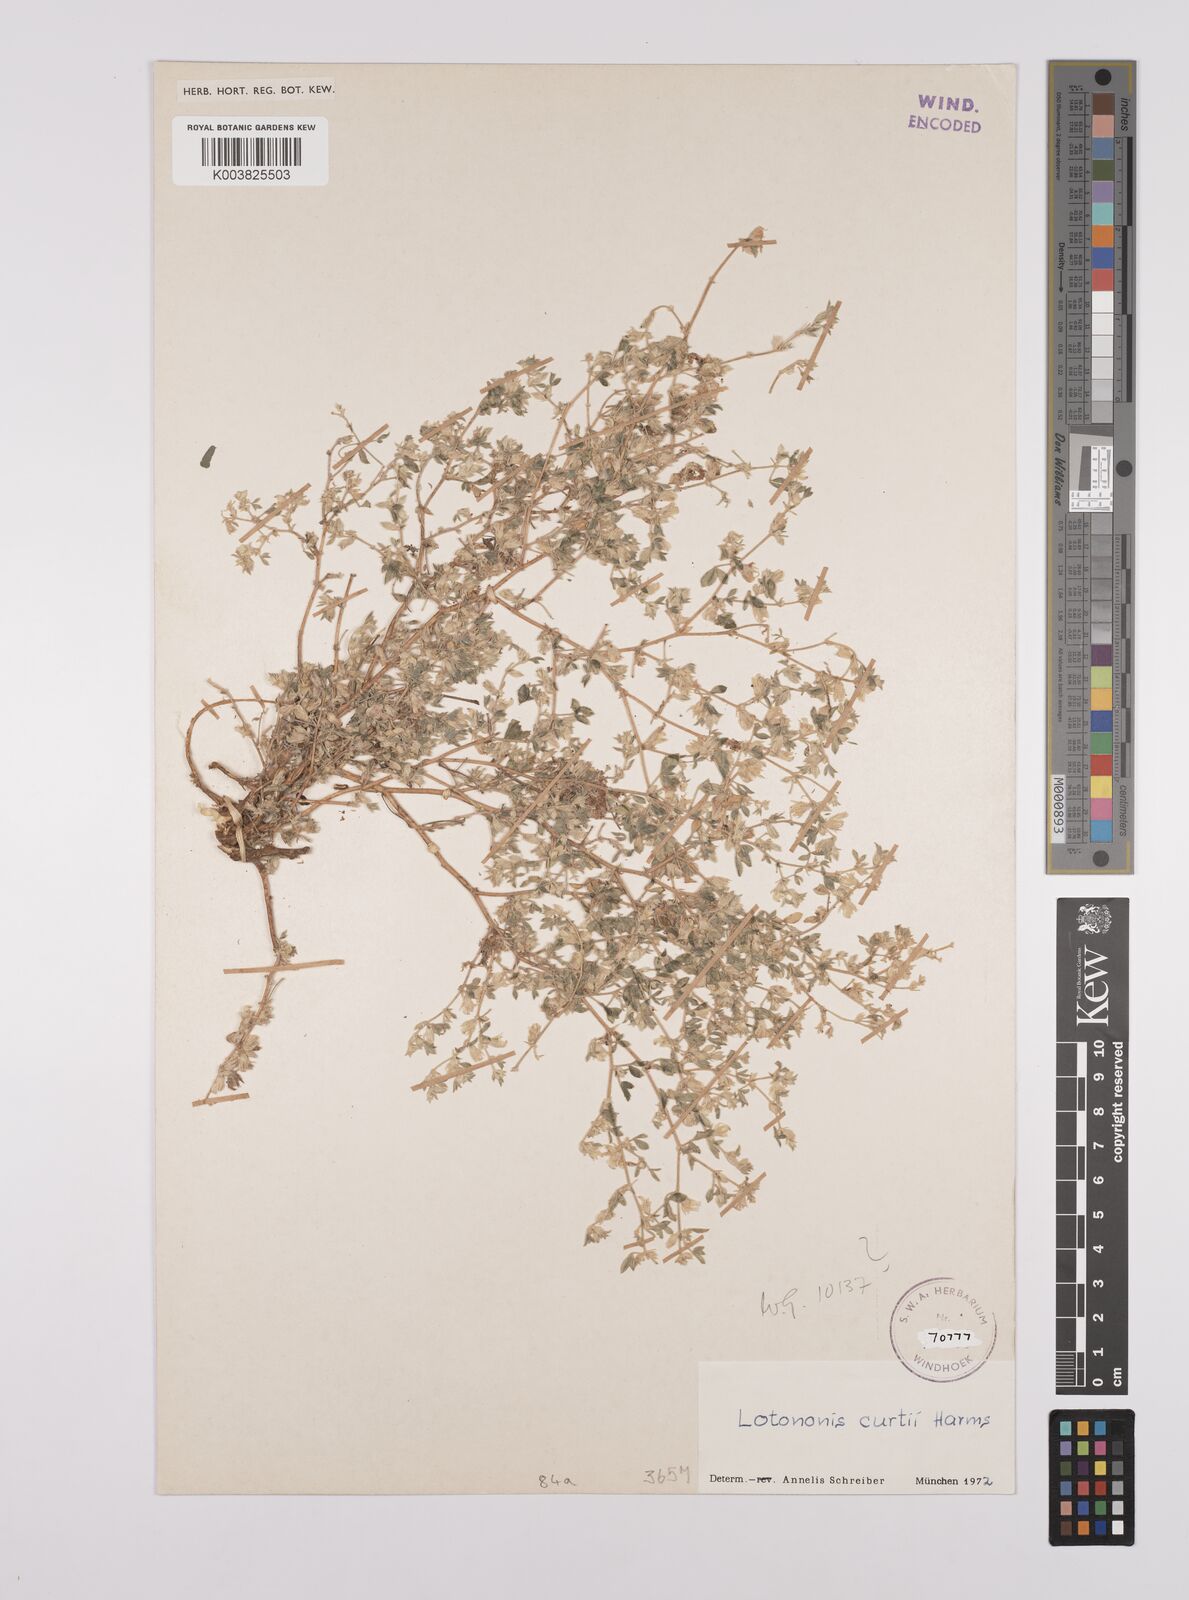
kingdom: Plantae
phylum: Tracheophyta
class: Magnoliopsida
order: Fabales
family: Fabaceae
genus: Lotononis
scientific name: Lotononis curtii
